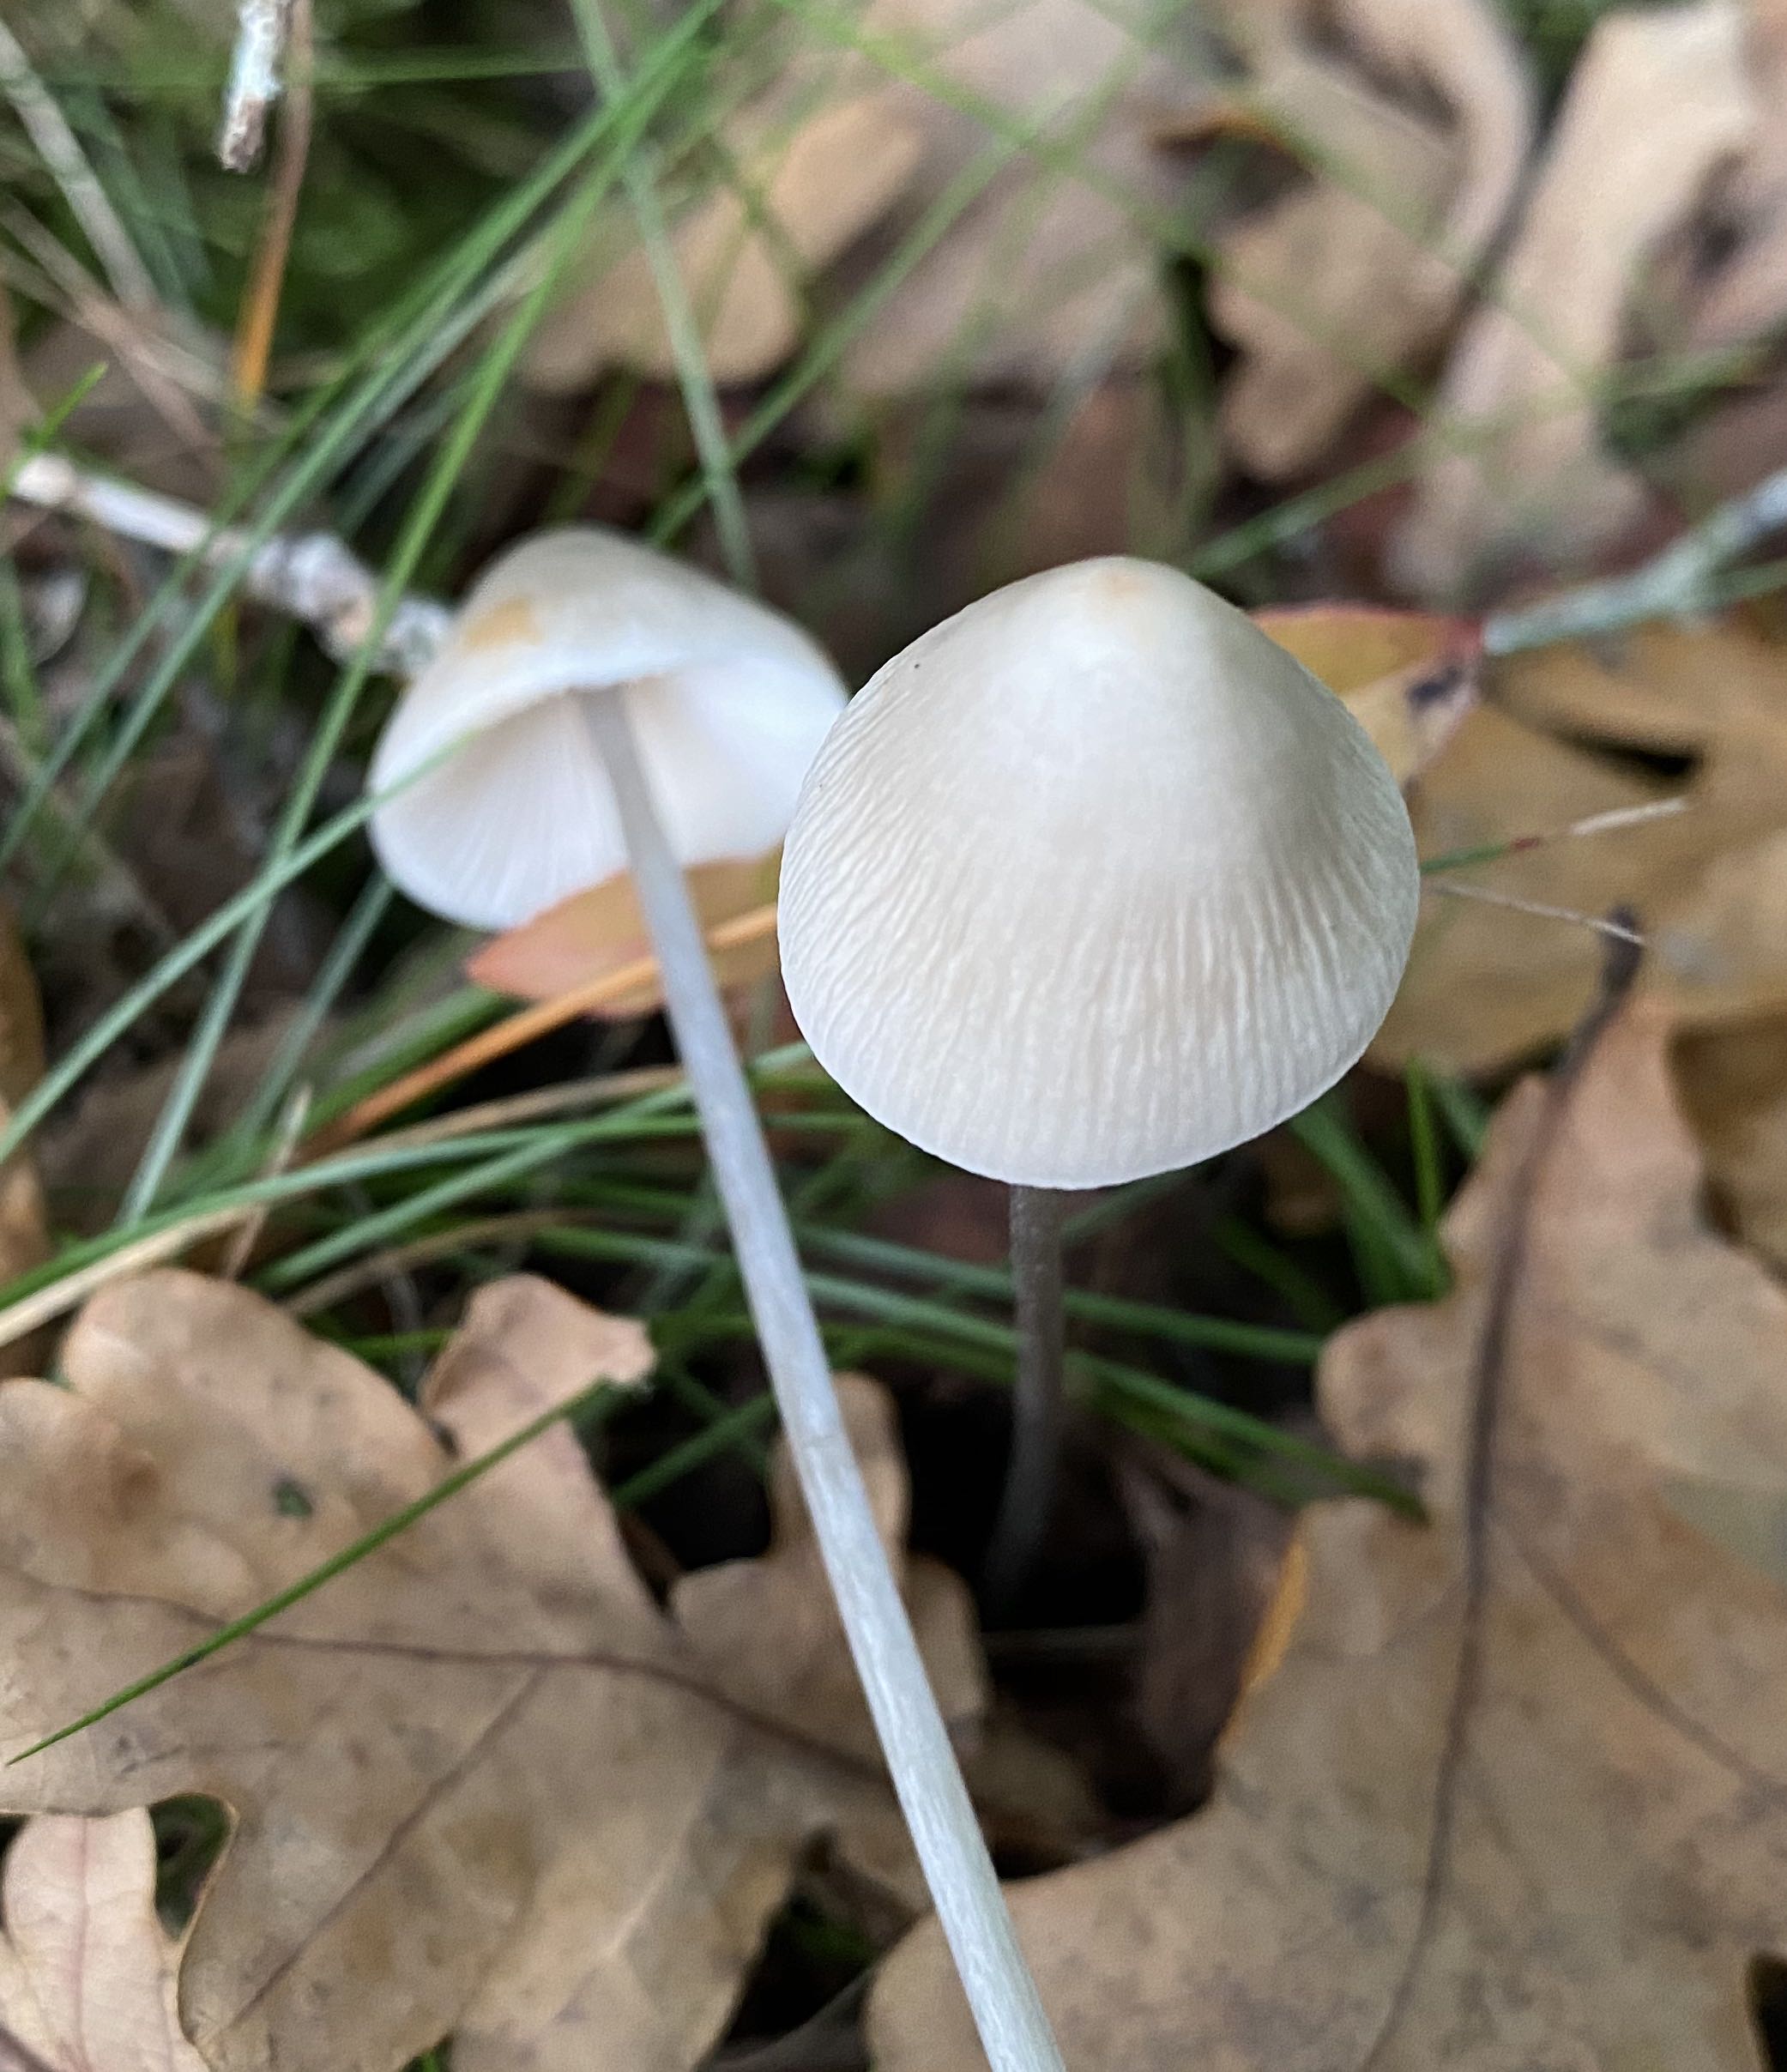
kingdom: Fungi
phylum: Basidiomycota
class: Agaricomycetes
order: Agaricales
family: Mycenaceae
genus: Mycena
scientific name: Mycena
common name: huesvamp
